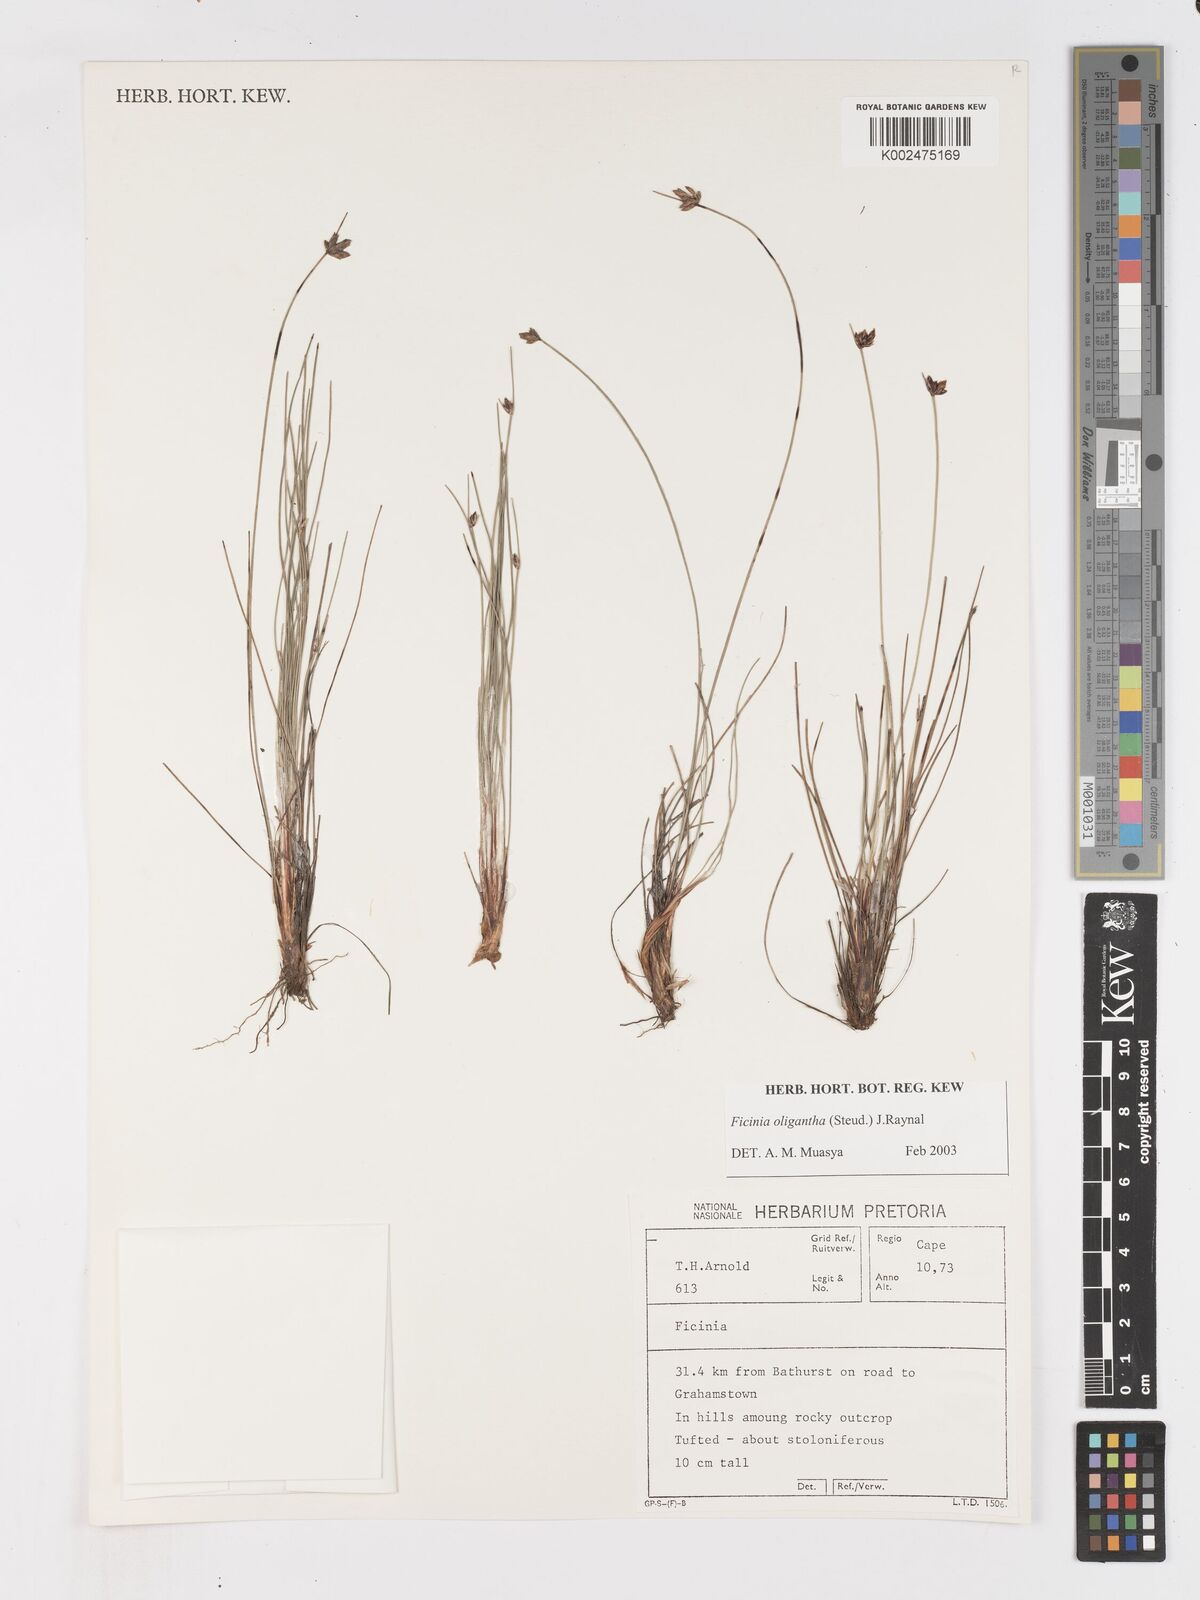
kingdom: Plantae
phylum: Tracheophyta
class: Liliopsida
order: Poales
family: Cyperaceae
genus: Ficinia
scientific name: Ficinia stolonifera
